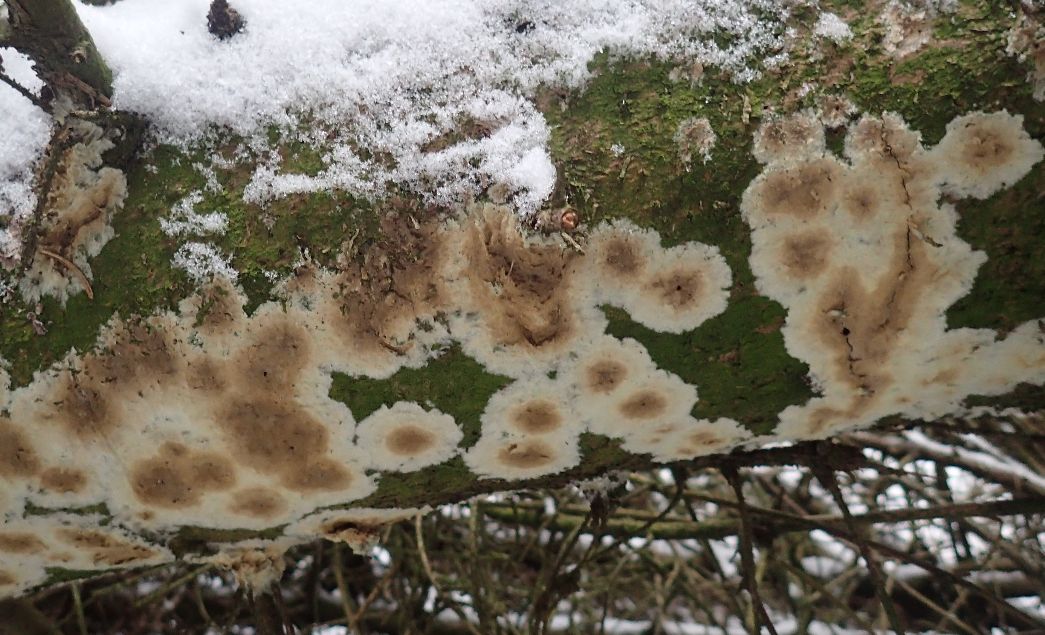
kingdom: Fungi
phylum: Basidiomycota
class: Agaricomycetes
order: Boletales
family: Coniophoraceae
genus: Coniophora
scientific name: Coniophora puteana
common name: gul tømmersvamp
